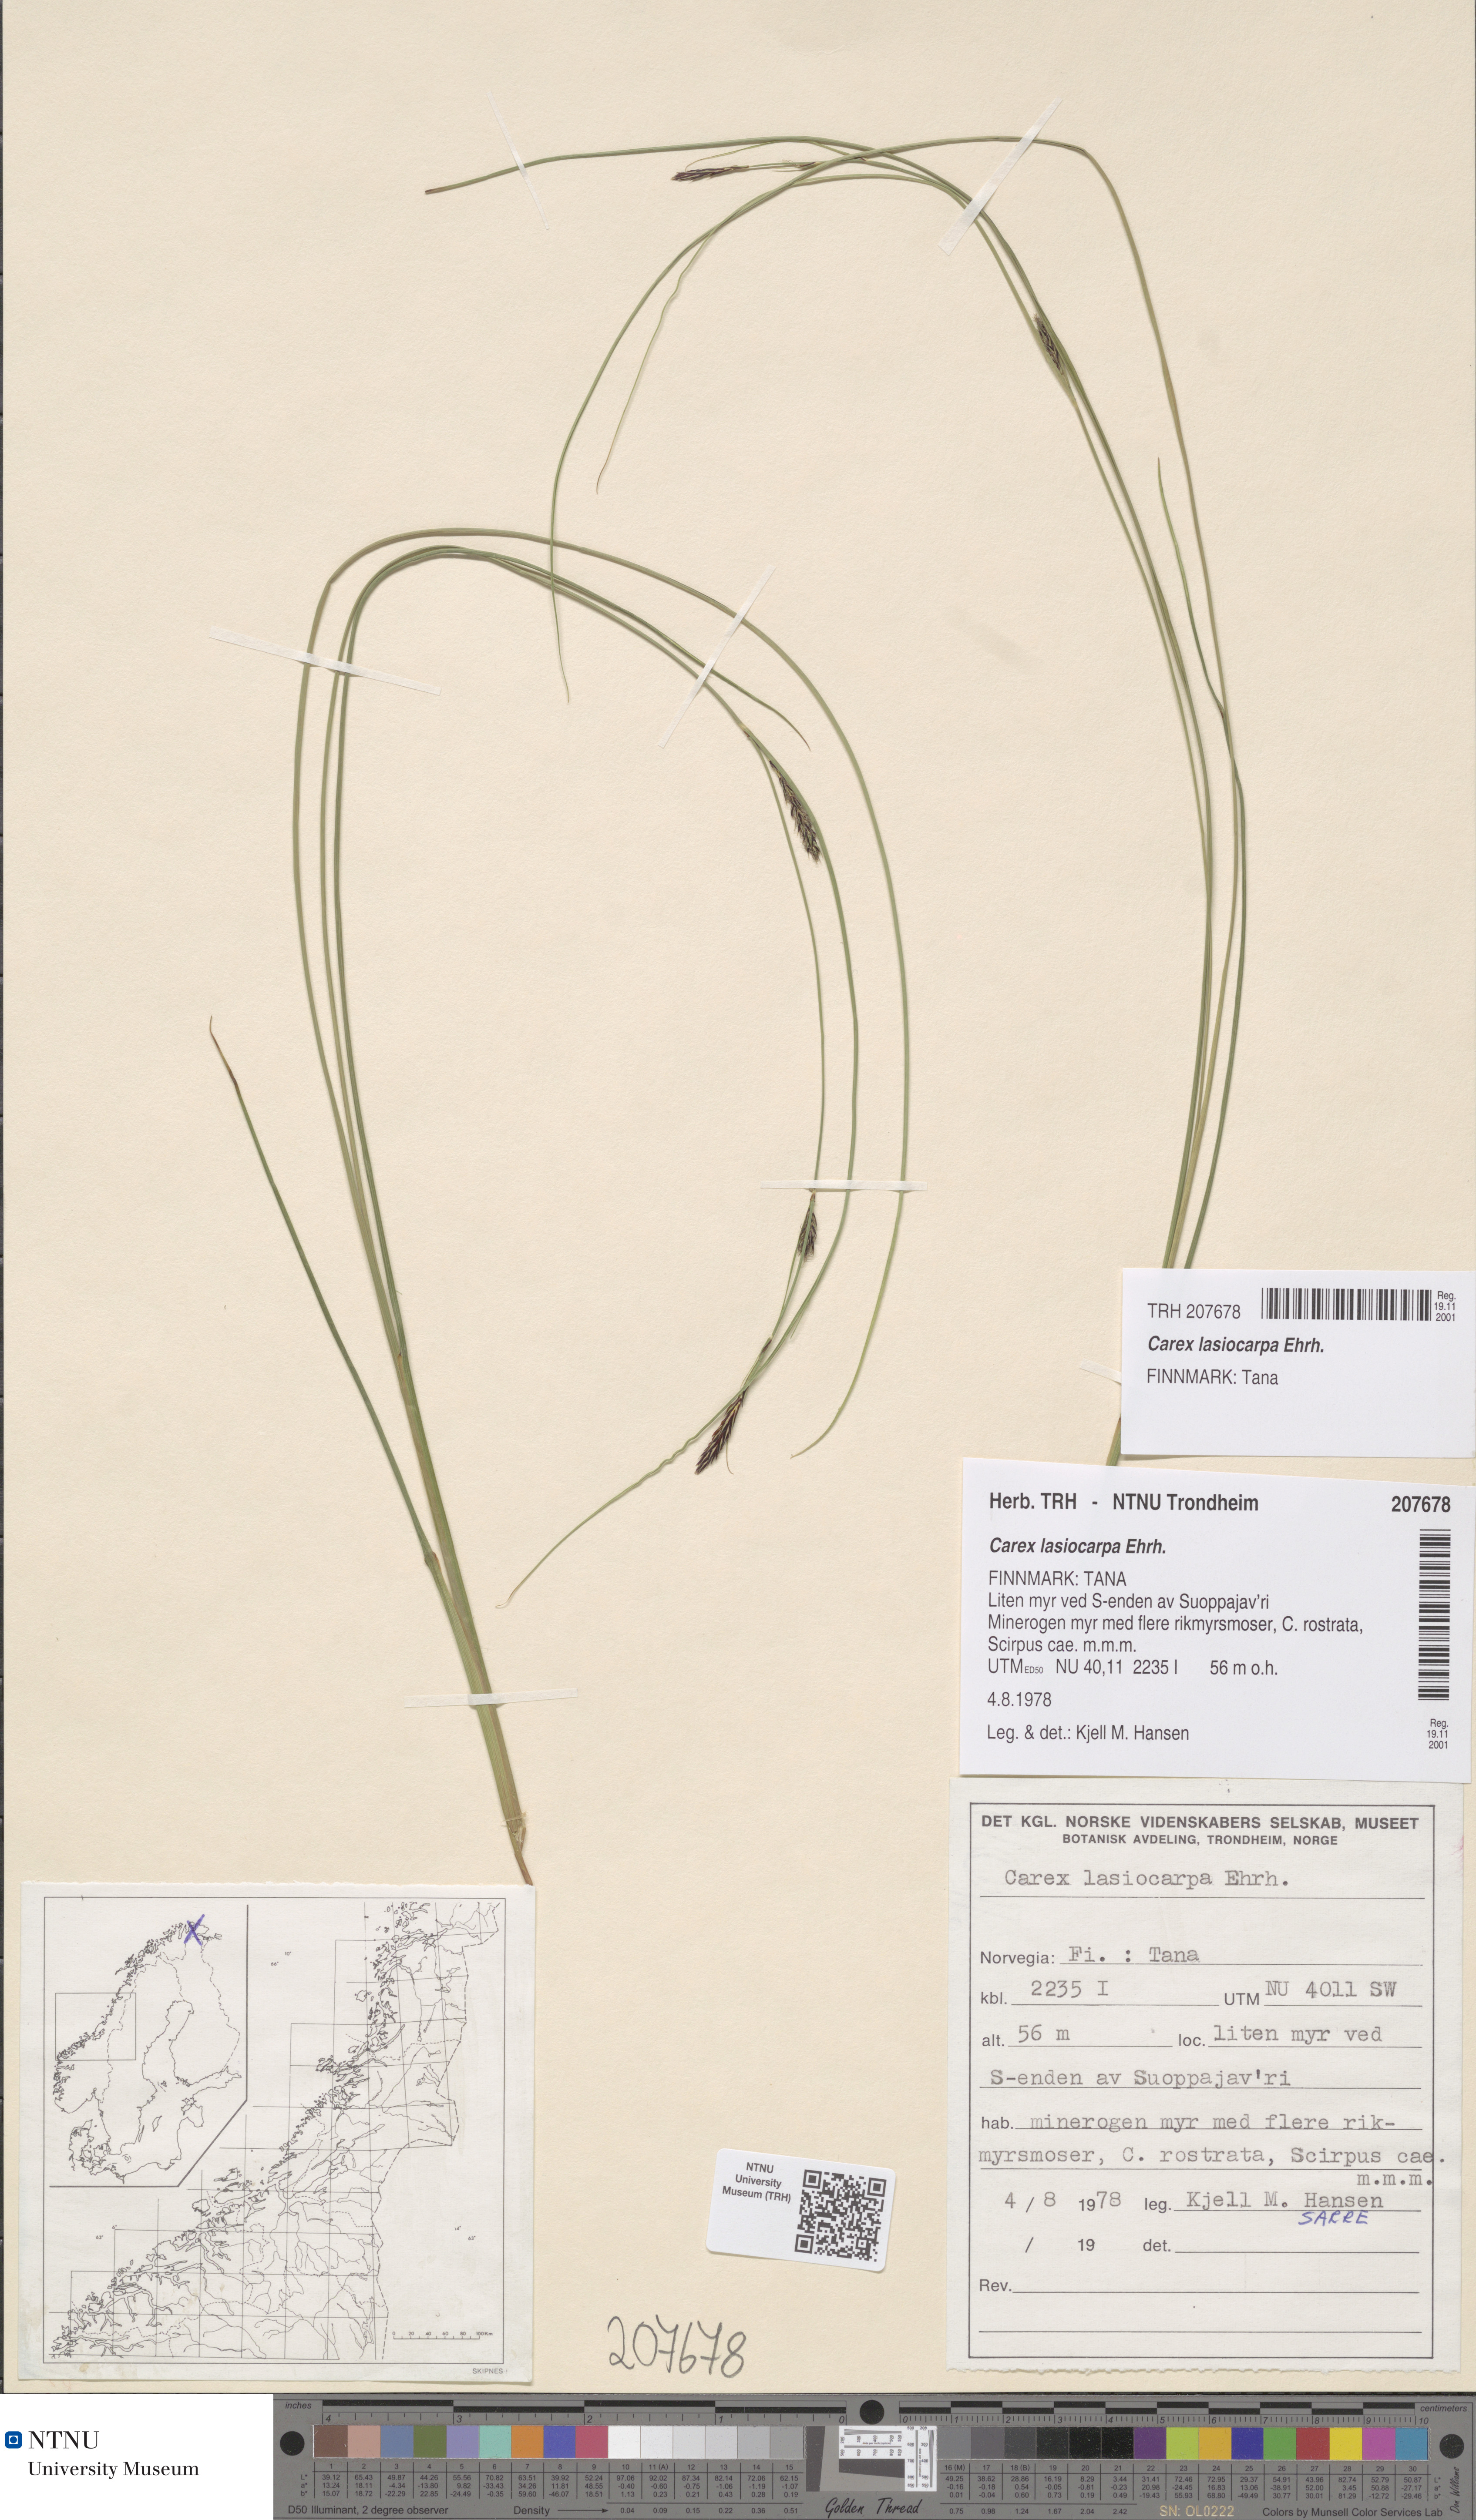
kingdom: Plantae
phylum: Tracheophyta
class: Liliopsida
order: Poales
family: Cyperaceae
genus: Carex
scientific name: Carex lasiocarpa
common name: Slender sedge
